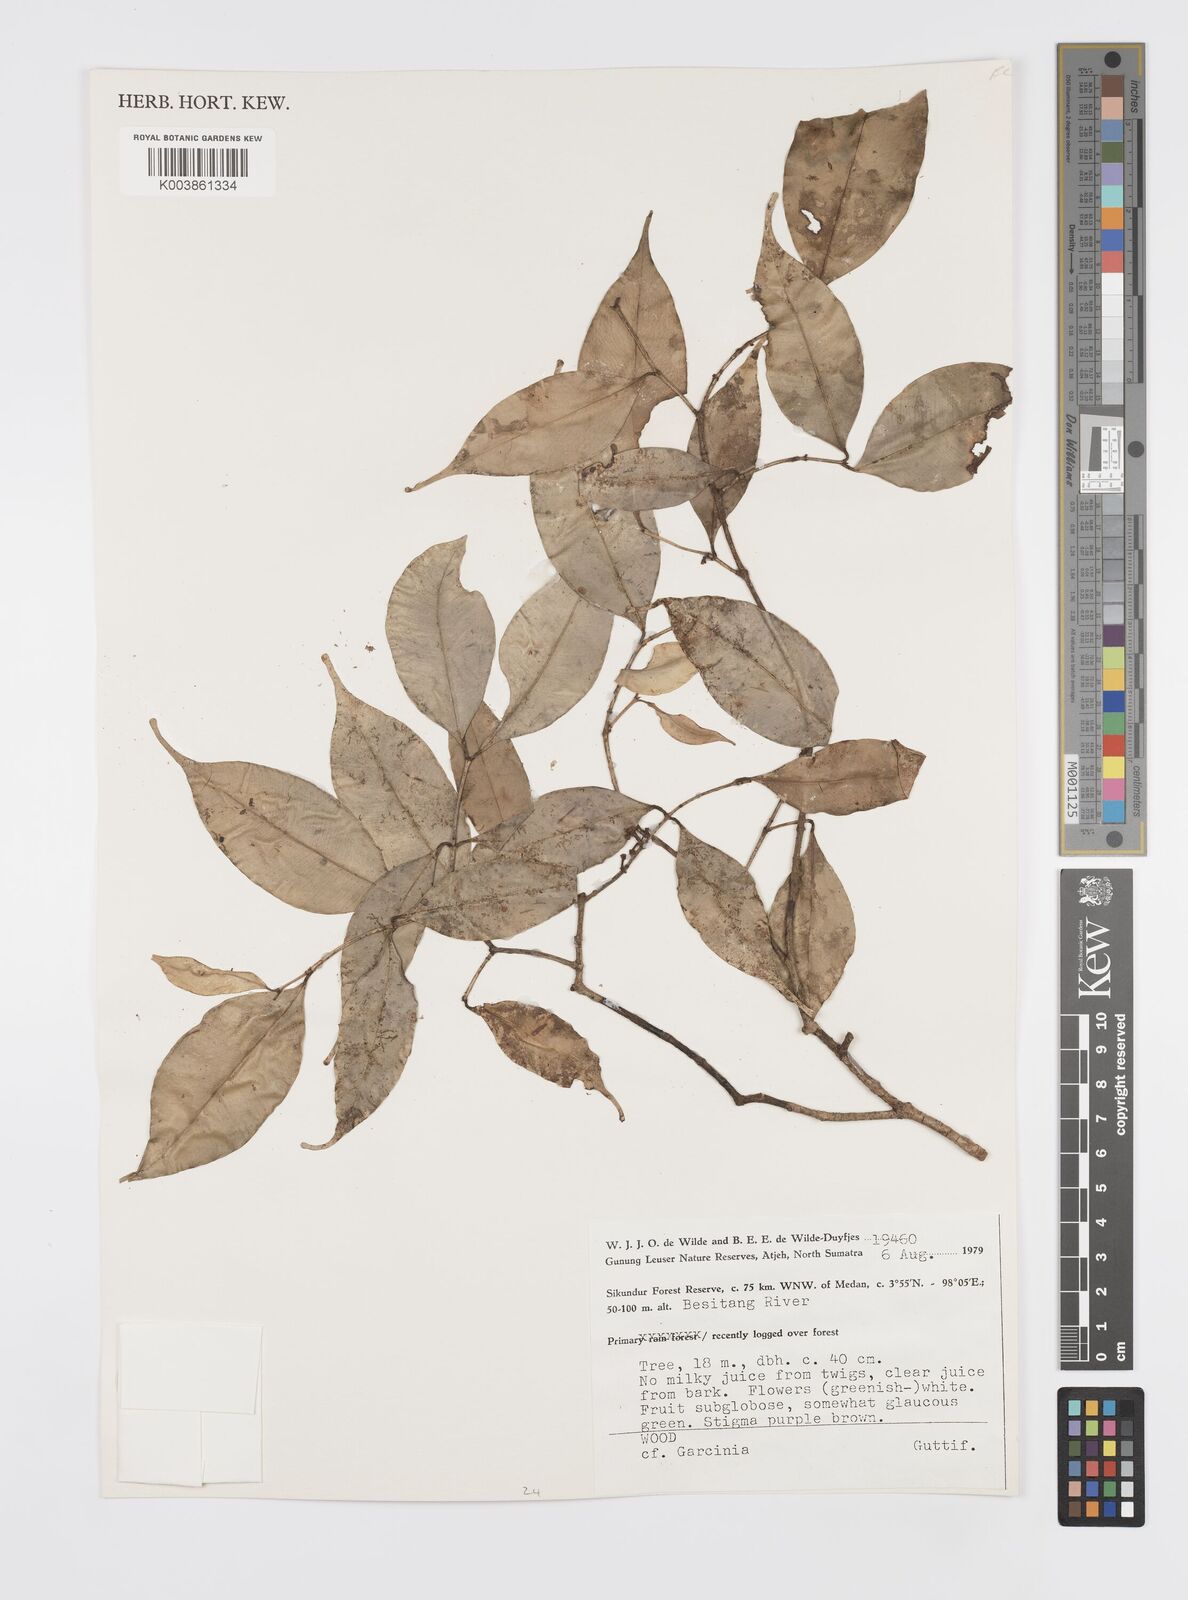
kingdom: Plantae
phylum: Tracheophyta
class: Magnoliopsida
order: Malpighiales
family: Clusiaceae
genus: Garcinia
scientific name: Garcinia
